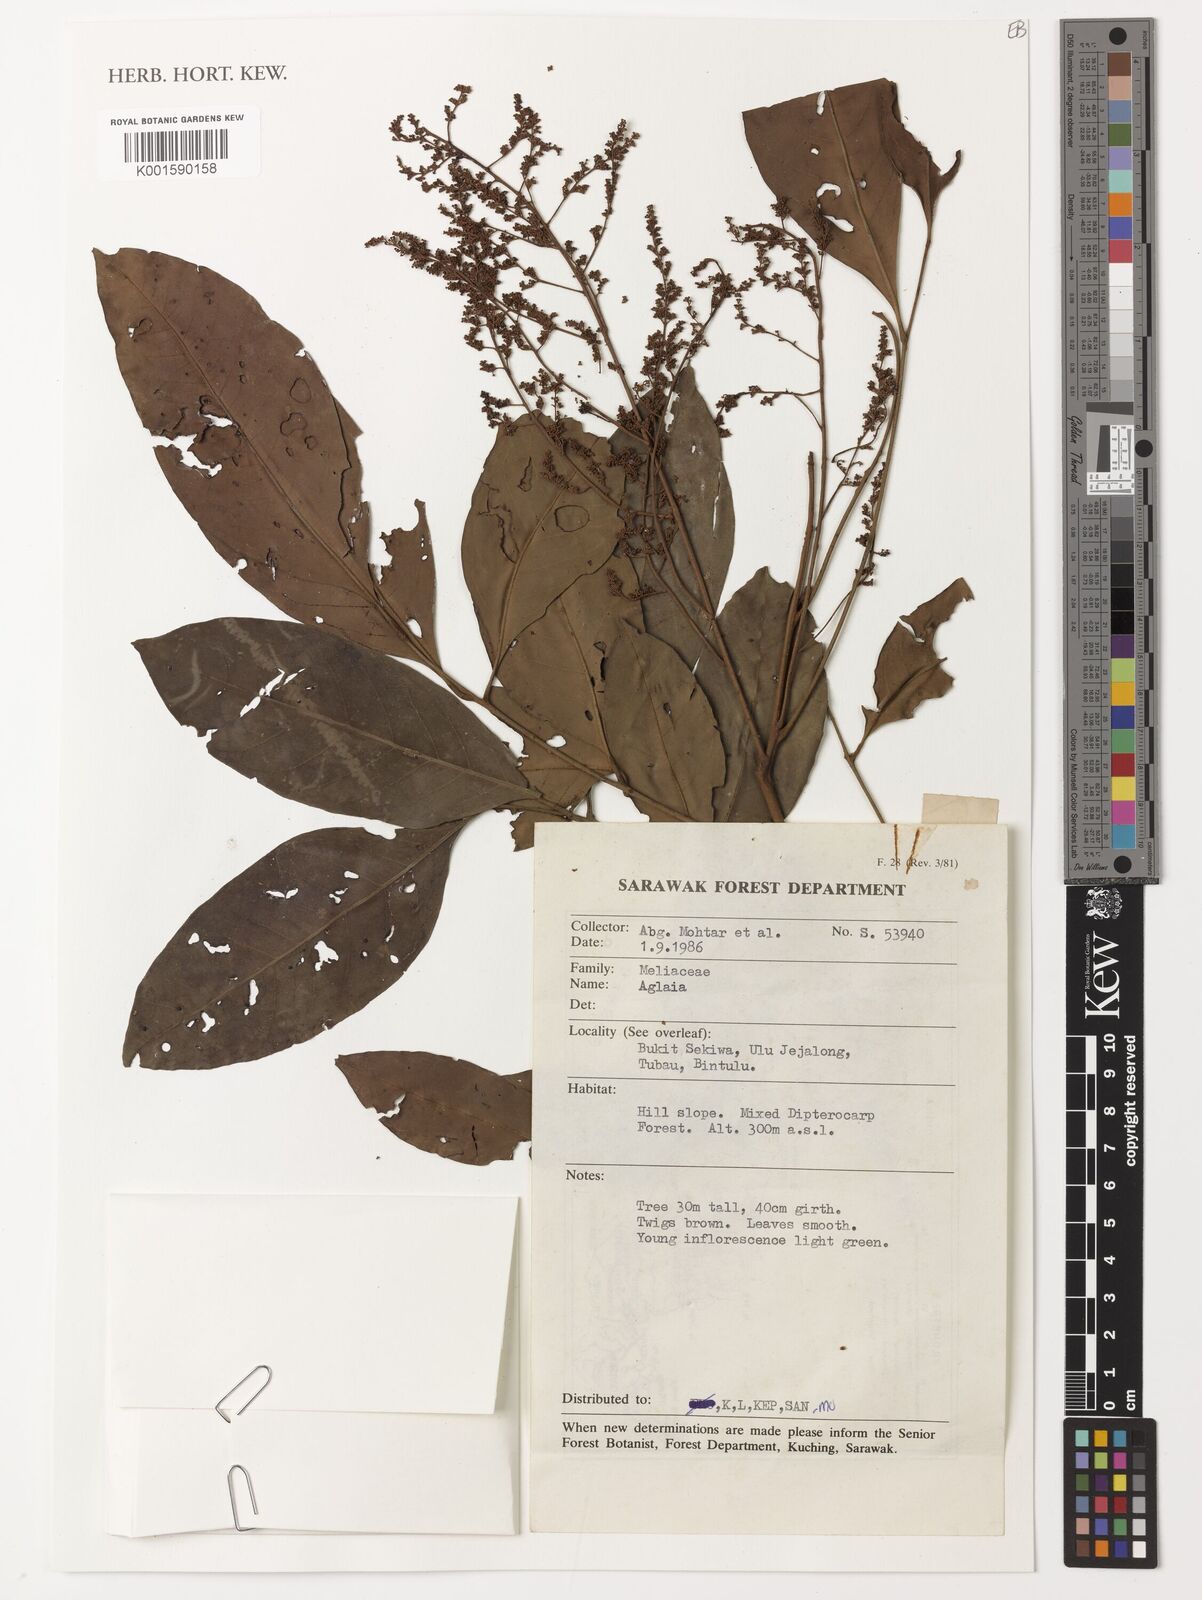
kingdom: Plantae
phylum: Tracheophyta
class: Magnoliopsida
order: Sapindales
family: Meliaceae
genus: Aglaia
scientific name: Aglaia
